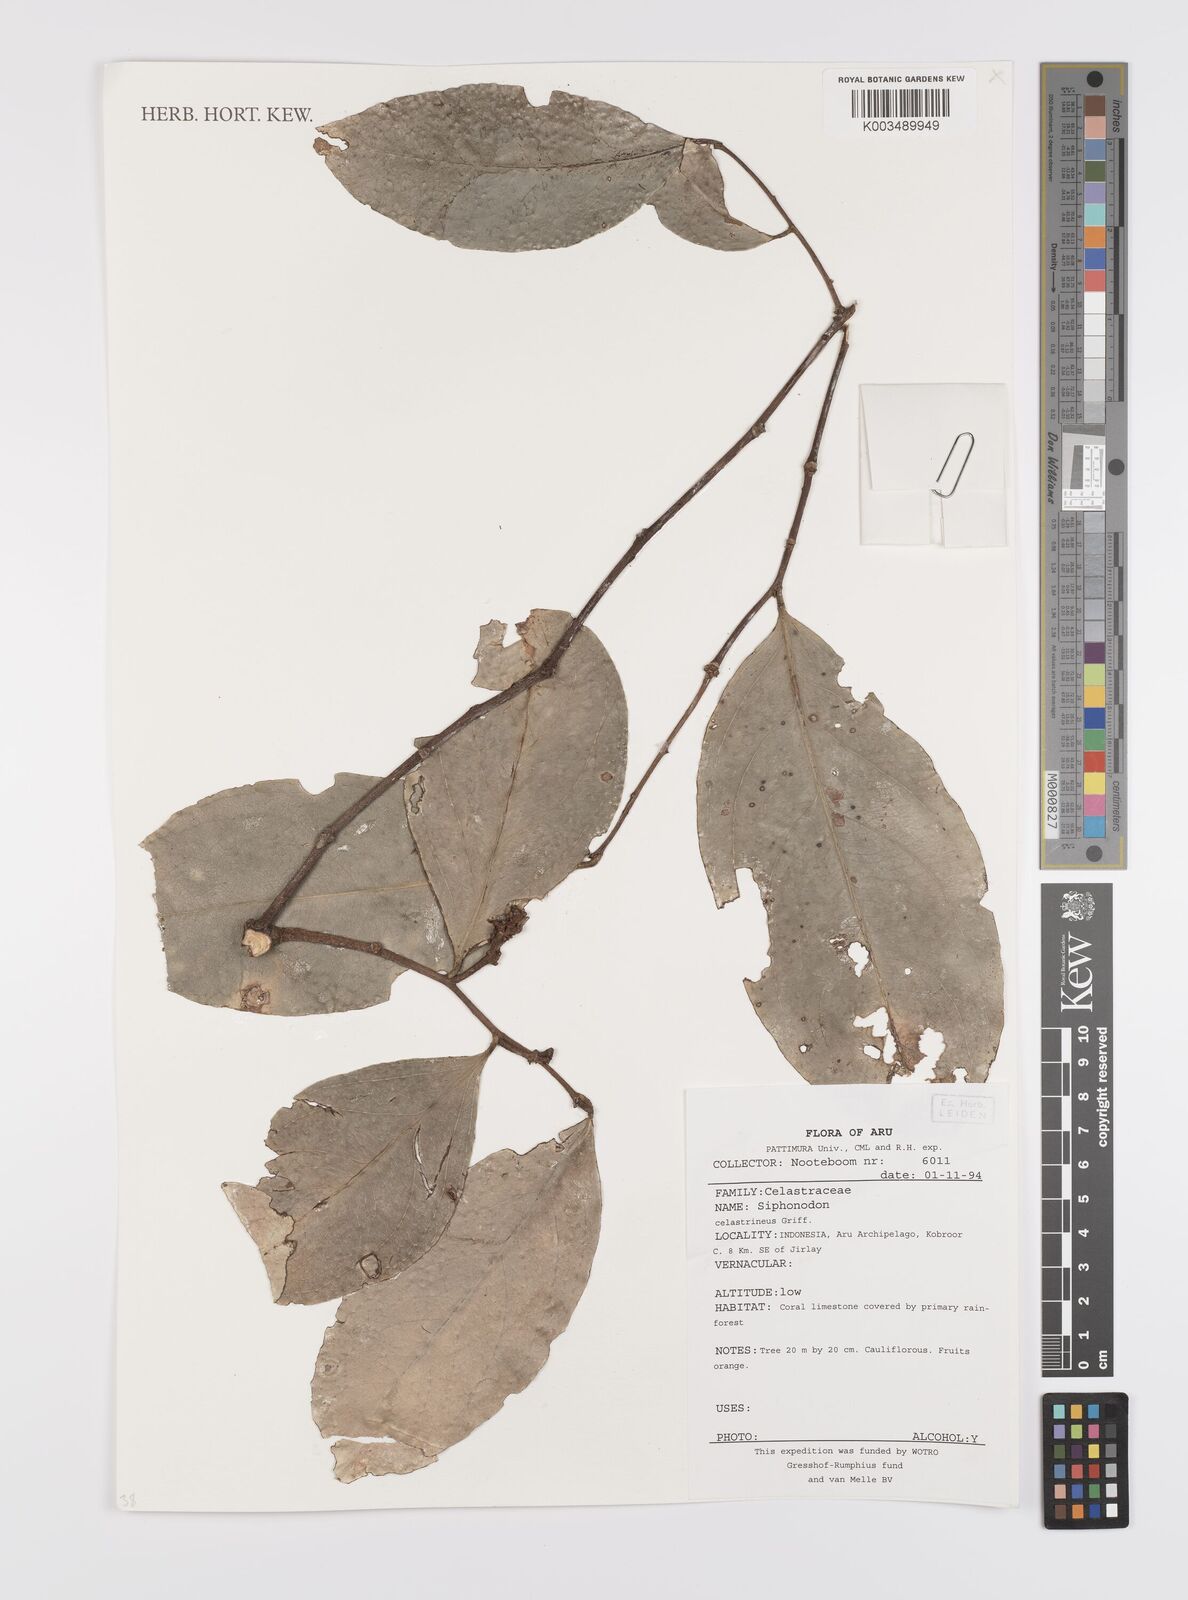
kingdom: Plantae
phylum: Tracheophyta
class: Magnoliopsida
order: Celastrales
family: Celastraceae
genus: Siphonodon
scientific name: Siphonodon celastrineus
